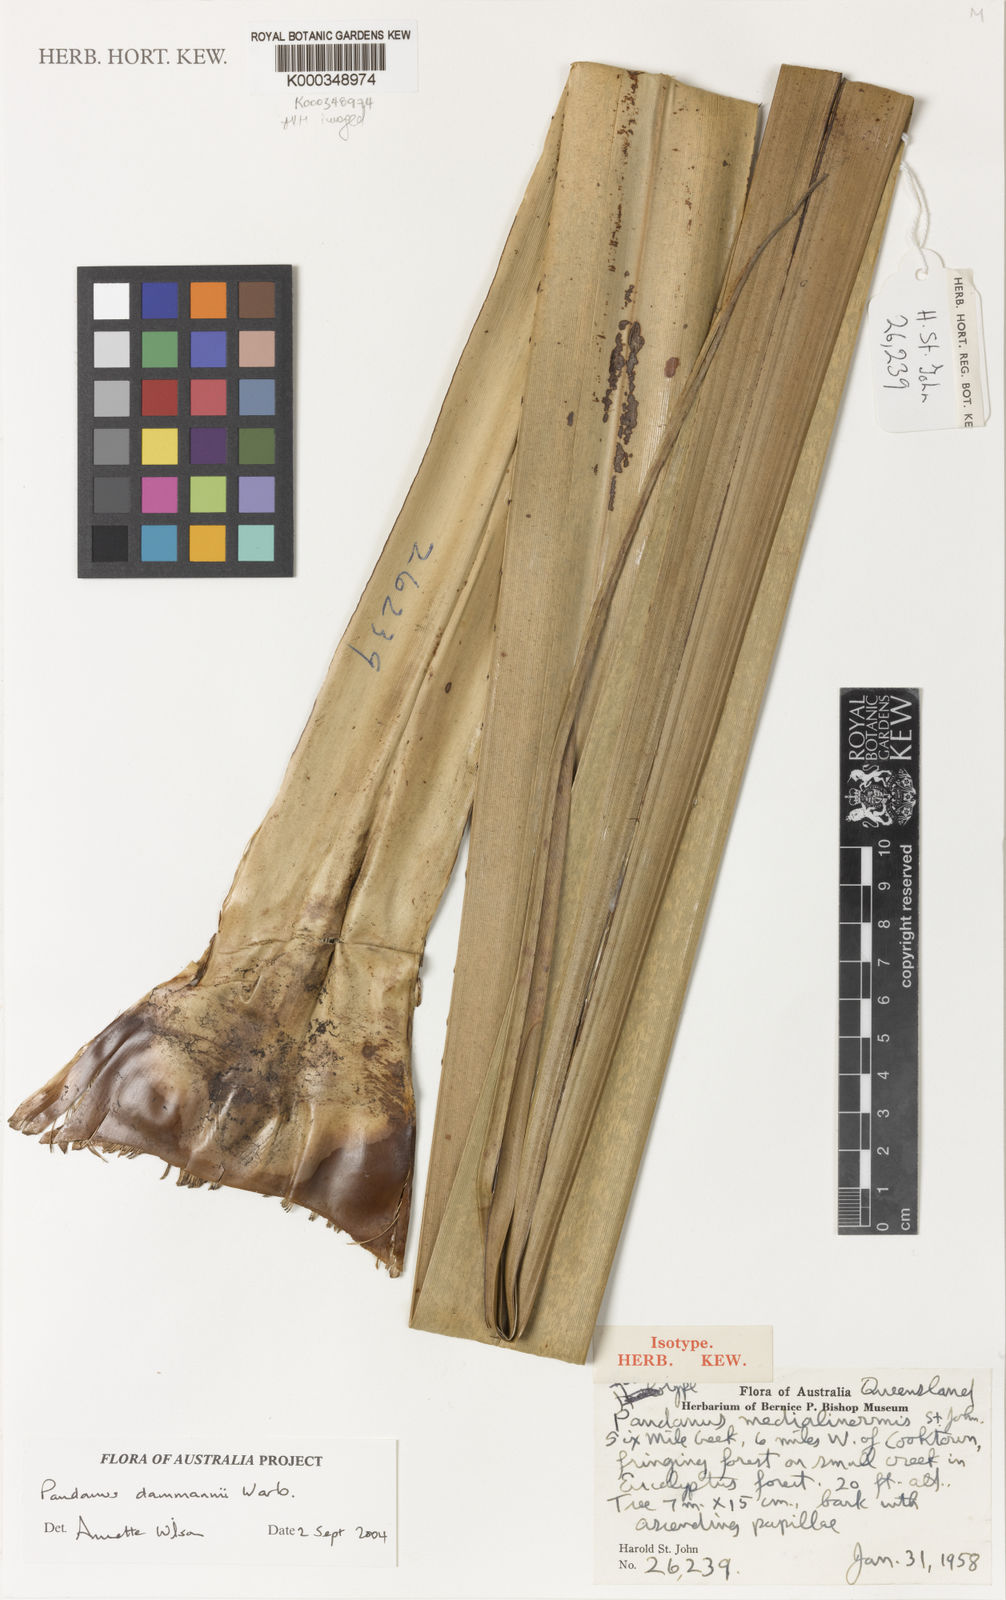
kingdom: Plantae
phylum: Tracheophyta
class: Liliopsida
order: Pandanales
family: Pandanaceae
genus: Pandanus
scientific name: Pandanus spiralis
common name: Screw-pine
